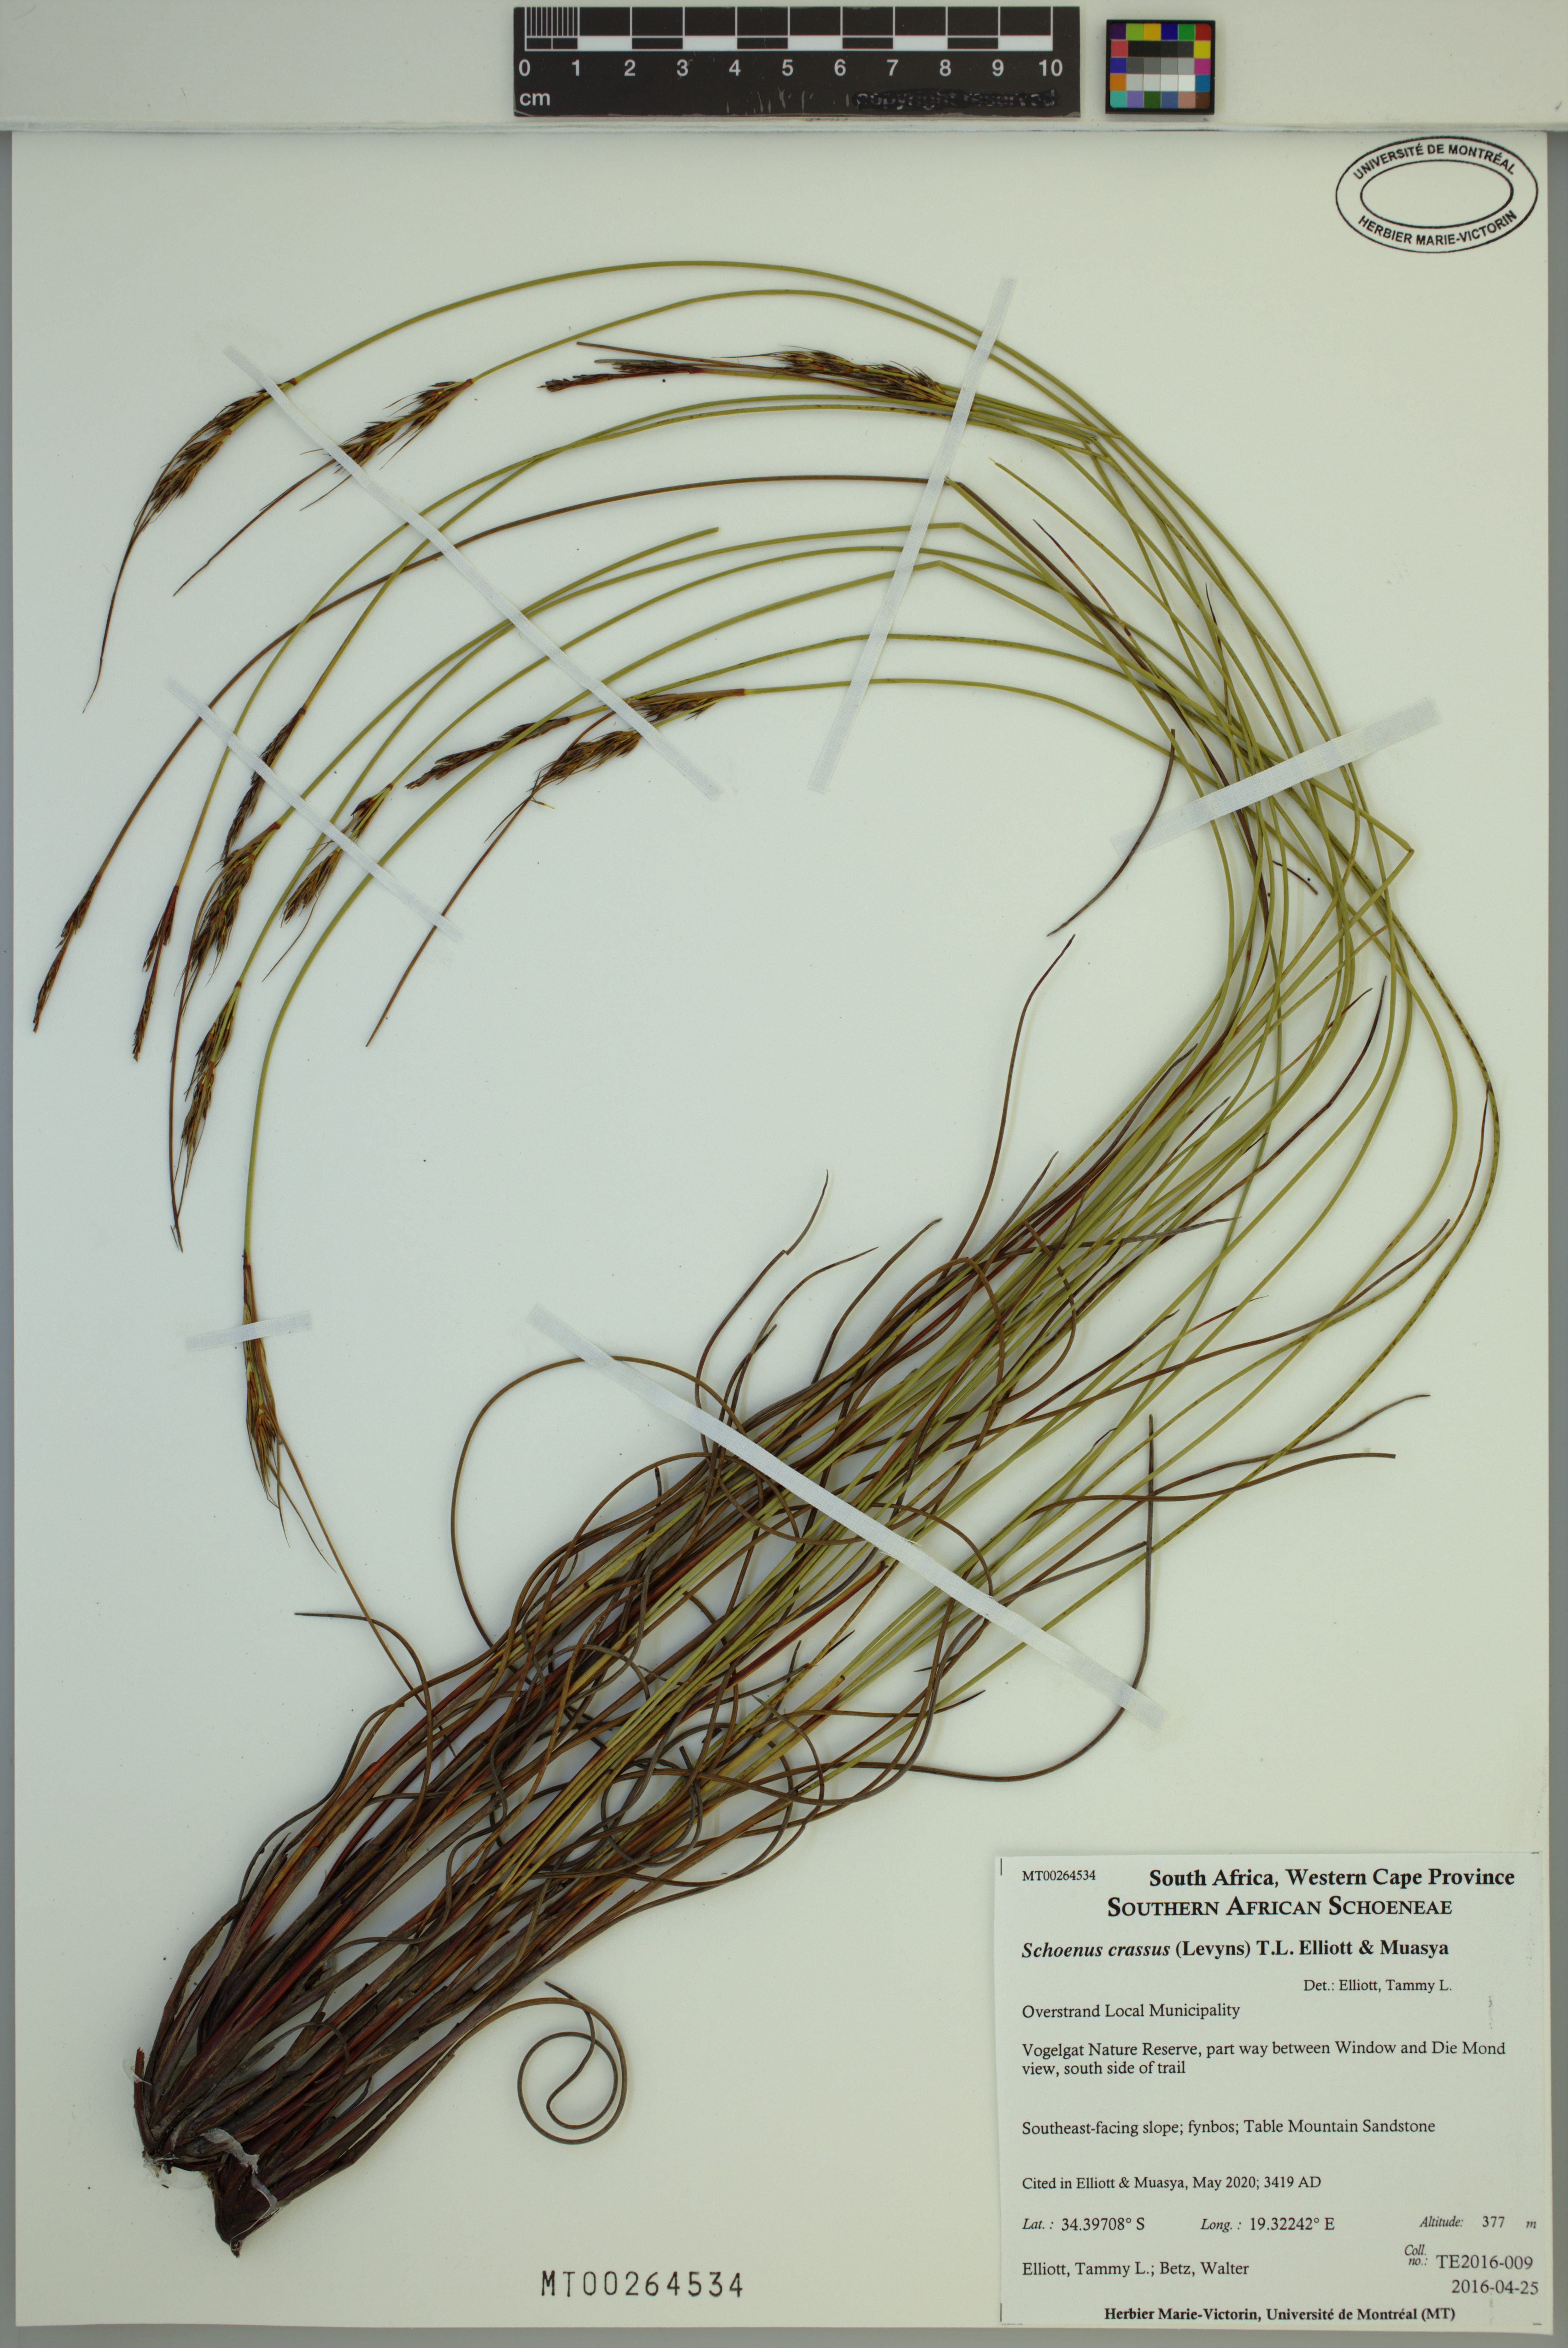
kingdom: Plantae
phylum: Tracheophyta
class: Liliopsida
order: Poales
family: Cyperaceae
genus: Schoenus
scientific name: Schoenus crassus
